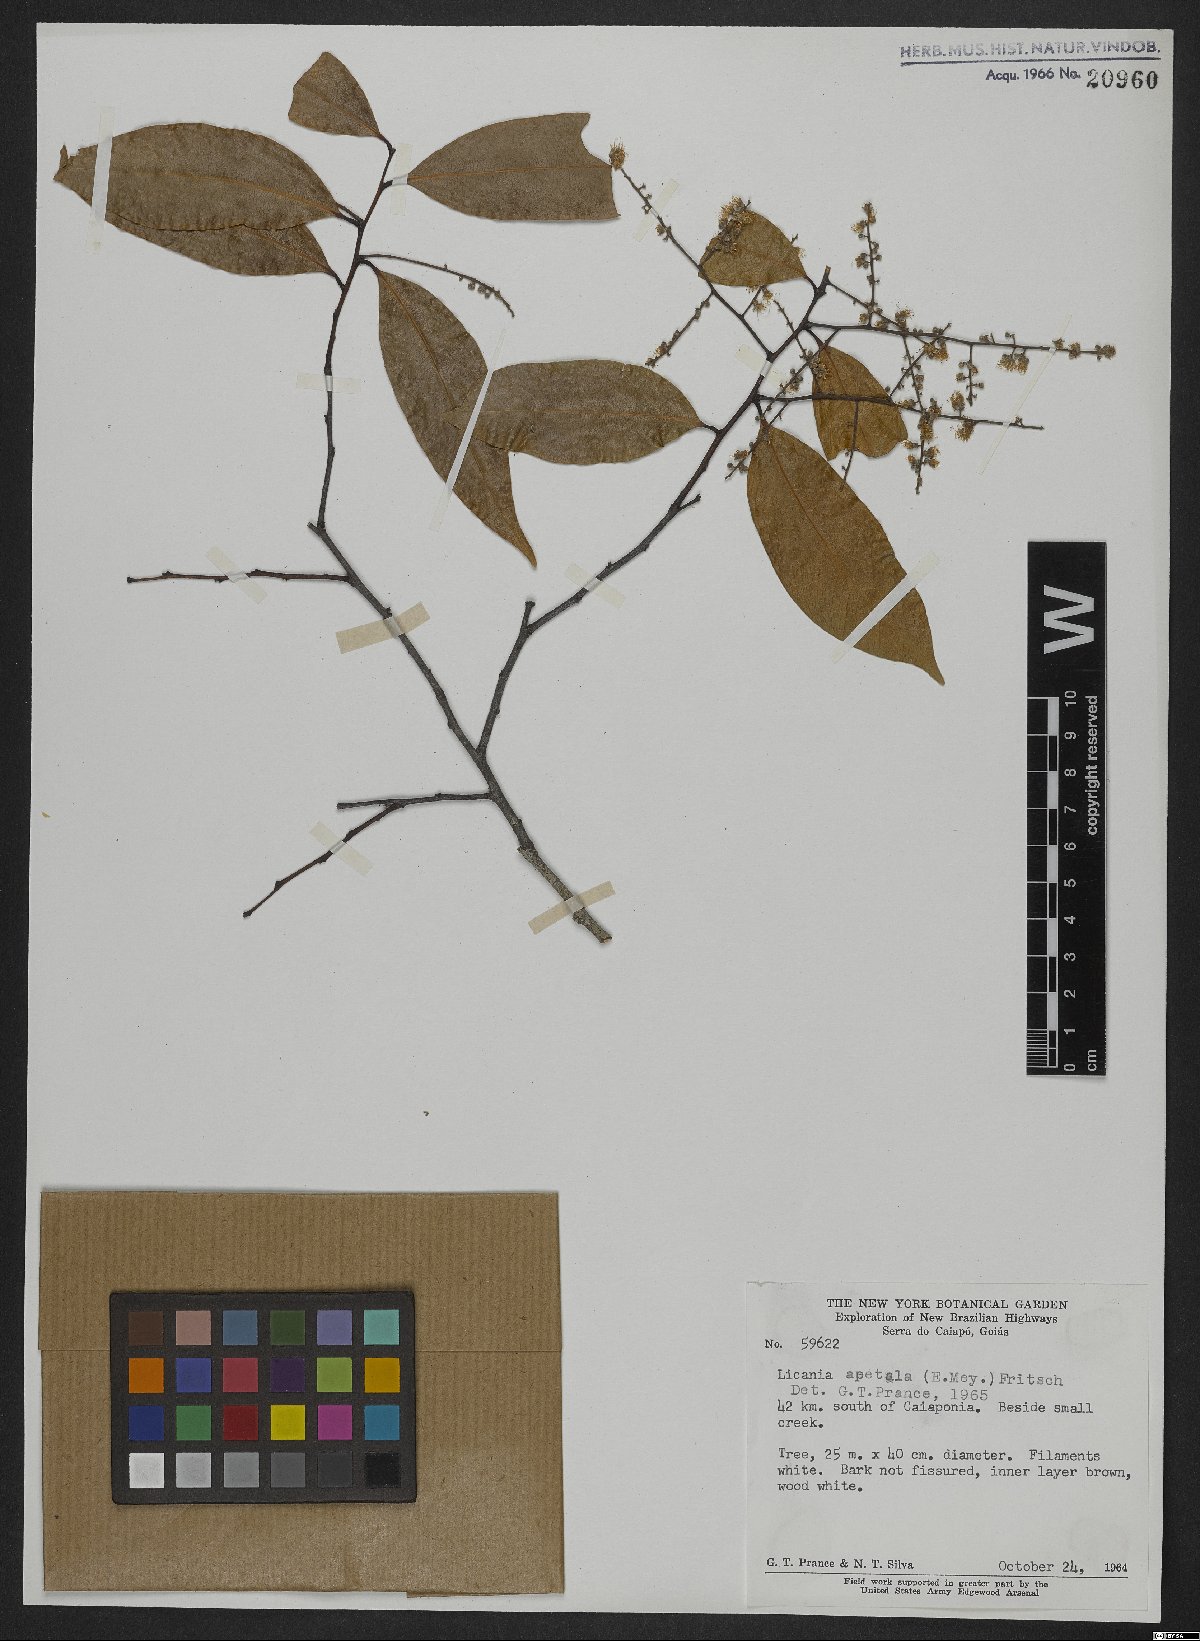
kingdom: Plantae
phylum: Tracheophyta
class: Magnoliopsida
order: Malpighiales
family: Chrysobalanaceae
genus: Leptobalanus
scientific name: Leptobalanus apetalus
